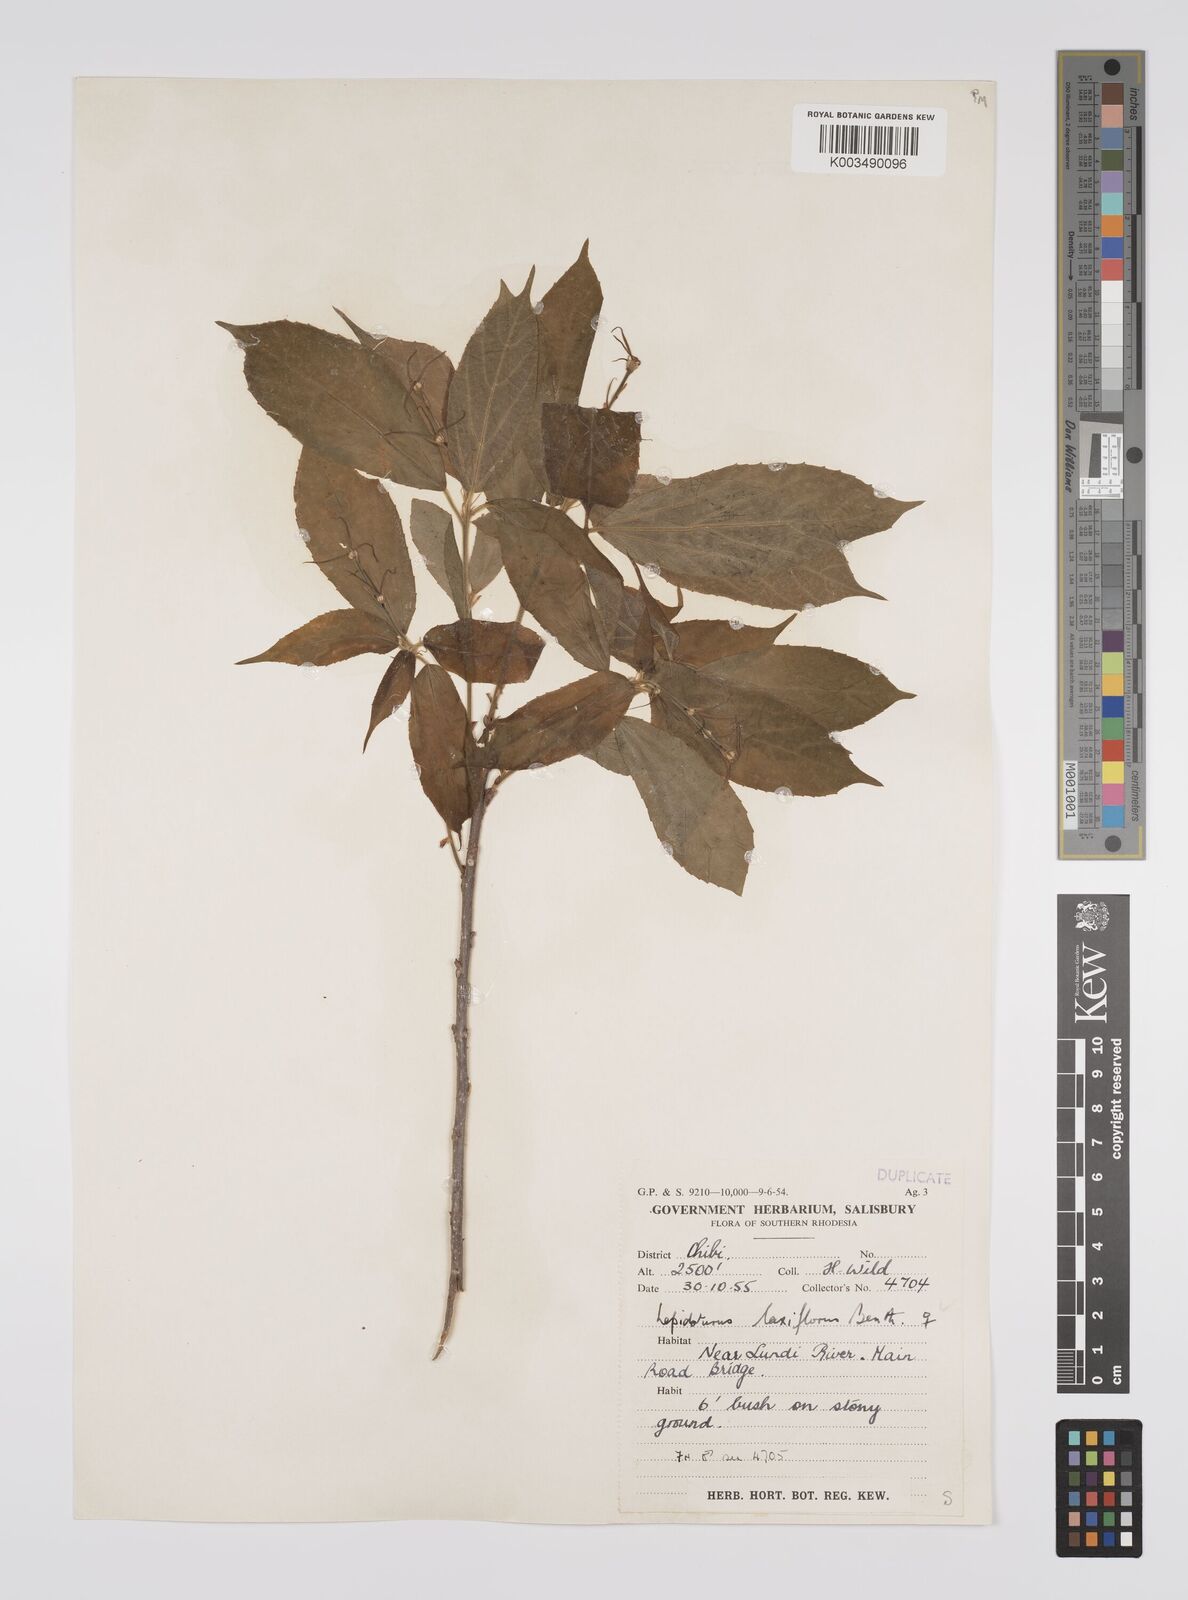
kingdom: Plantae
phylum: Tracheophyta
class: Magnoliopsida
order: Malpighiales
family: Euphorbiaceae
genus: Alchornea
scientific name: Alchornea laxiflora
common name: Lowveld bead-string
